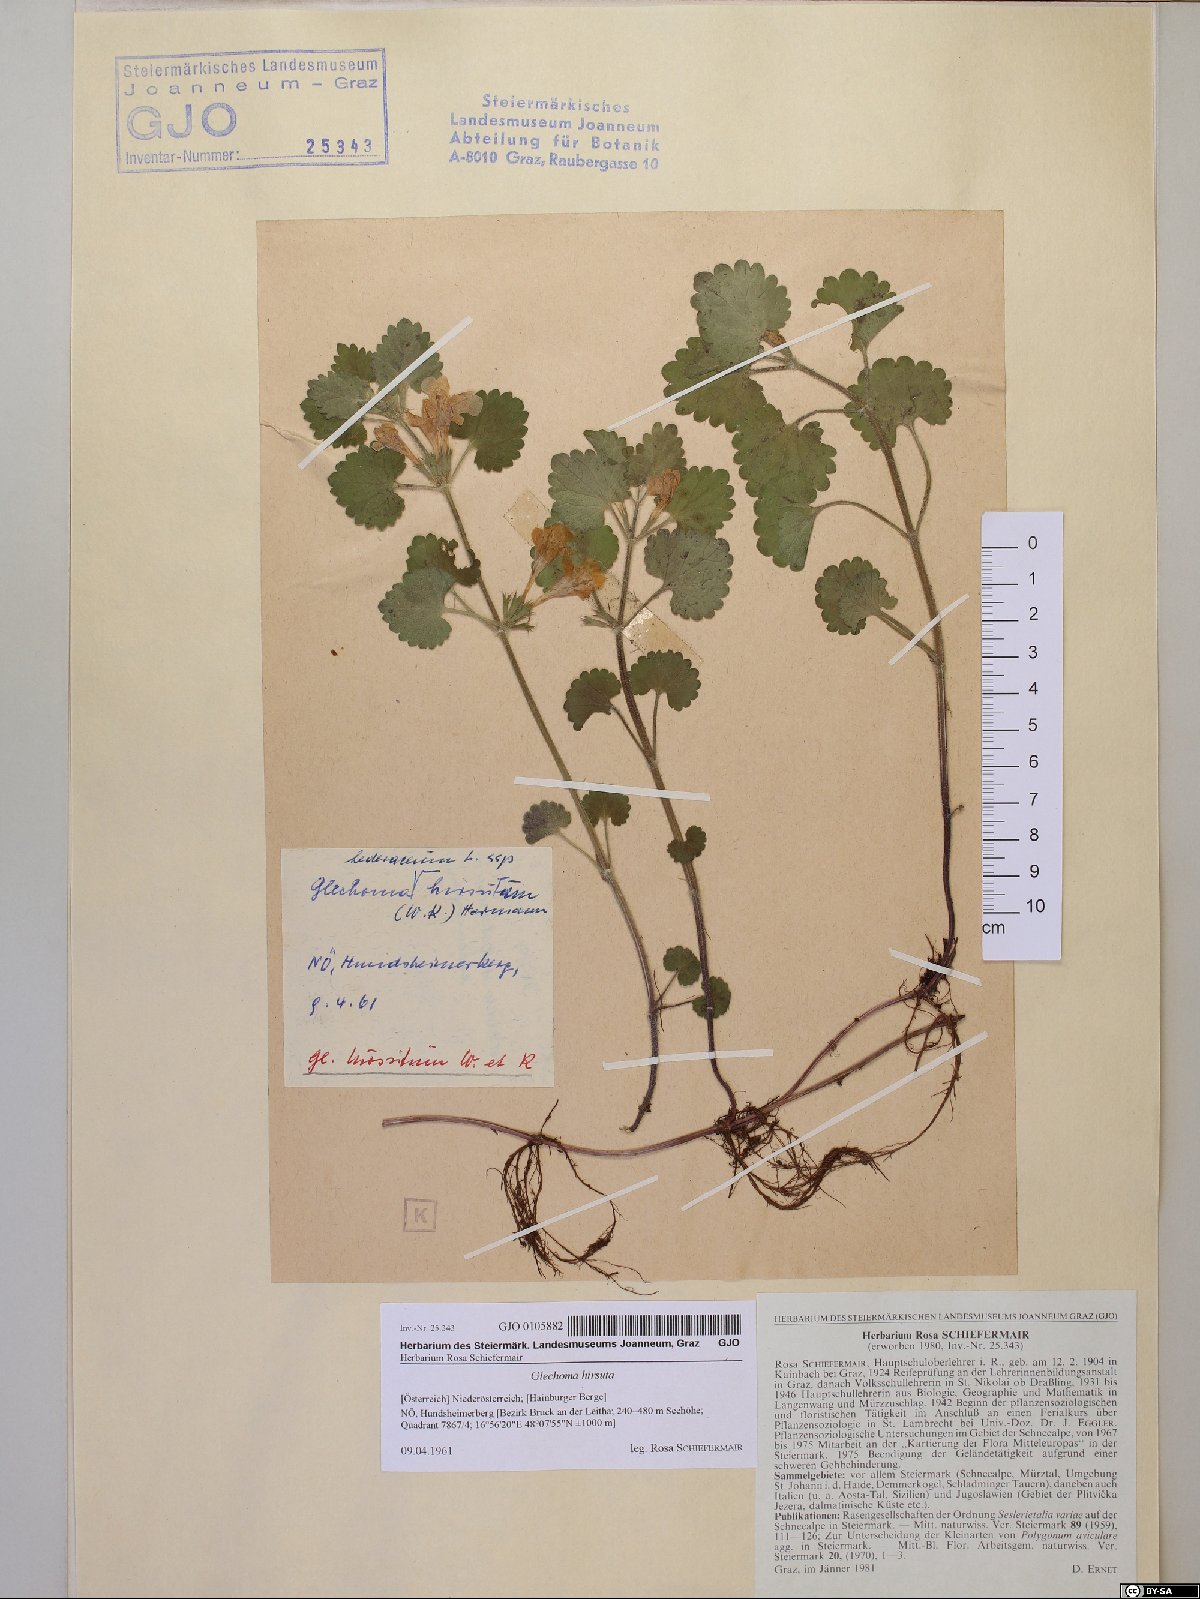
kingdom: Plantae
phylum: Tracheophyta
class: Magnoliopsida
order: Lamiales
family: Lamiaceae
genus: Glechoma
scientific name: Glechoma hirsuta
